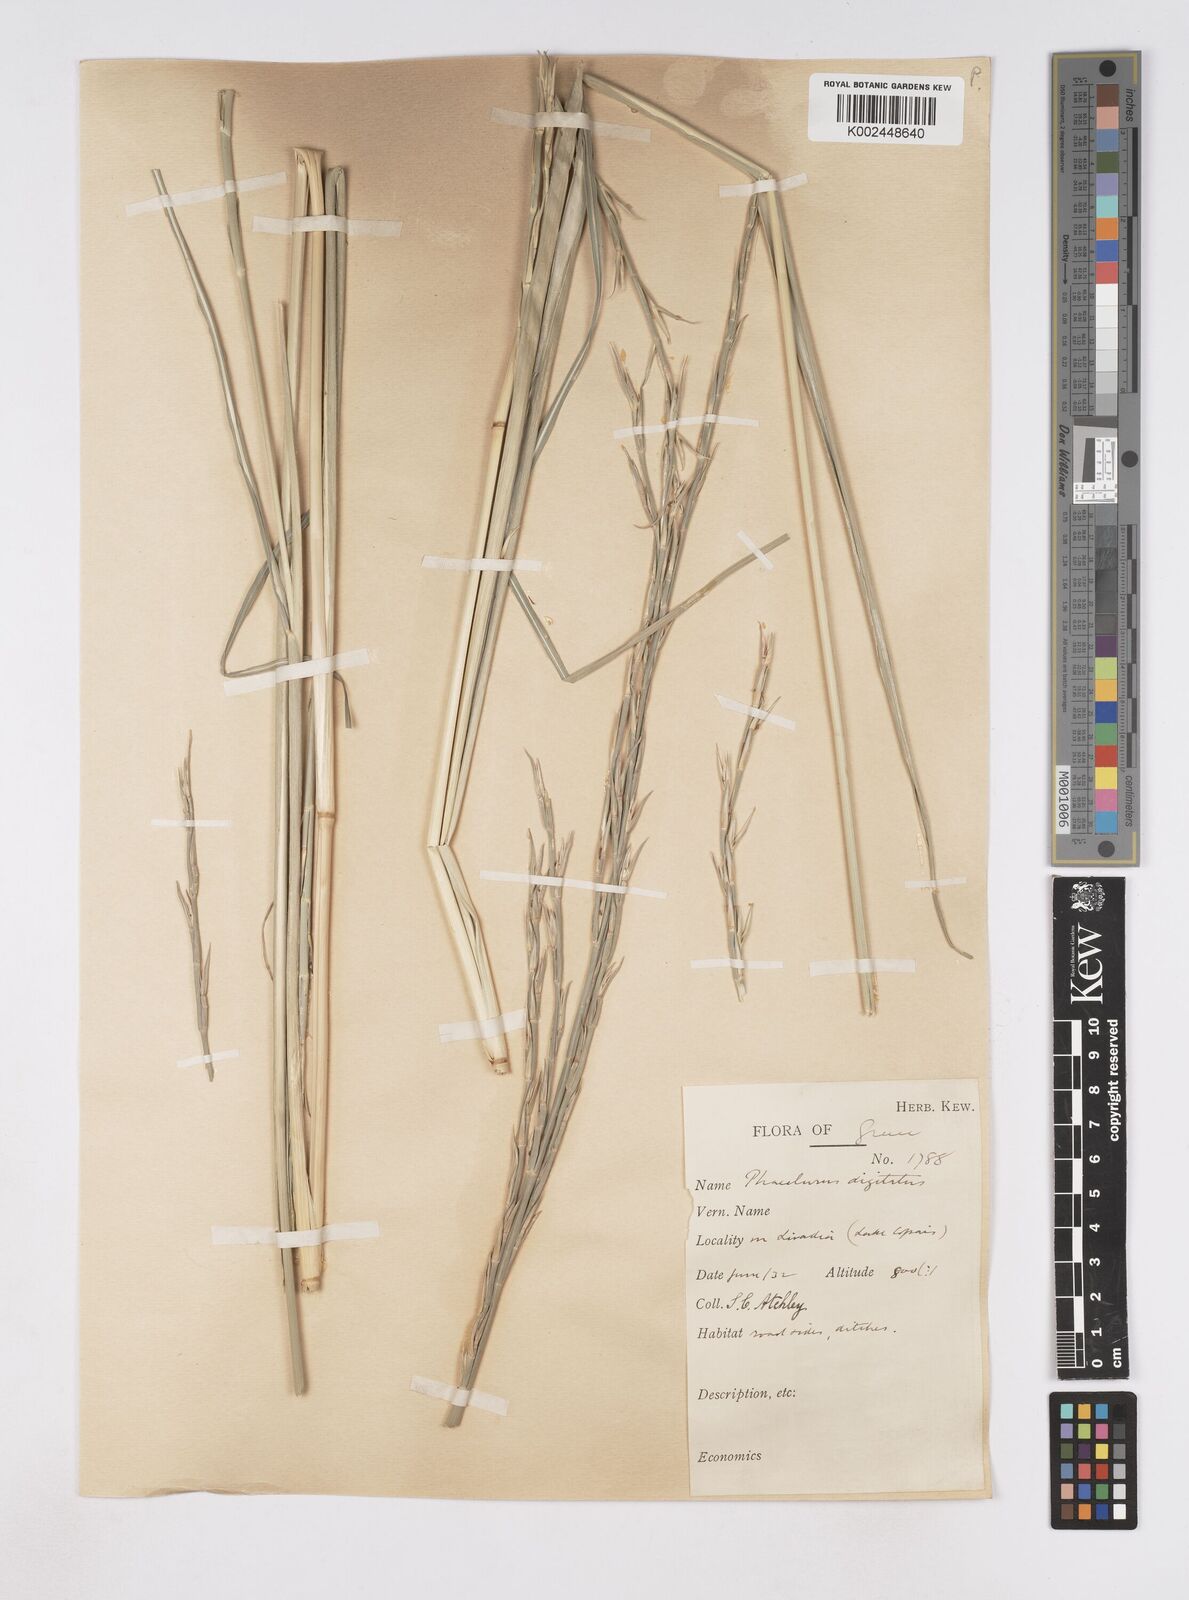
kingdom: Plantae
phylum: Tracheophyta
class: Liliopsida
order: Poales
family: Poaceae
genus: Phacelurus
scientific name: Phacelurus digitatus
